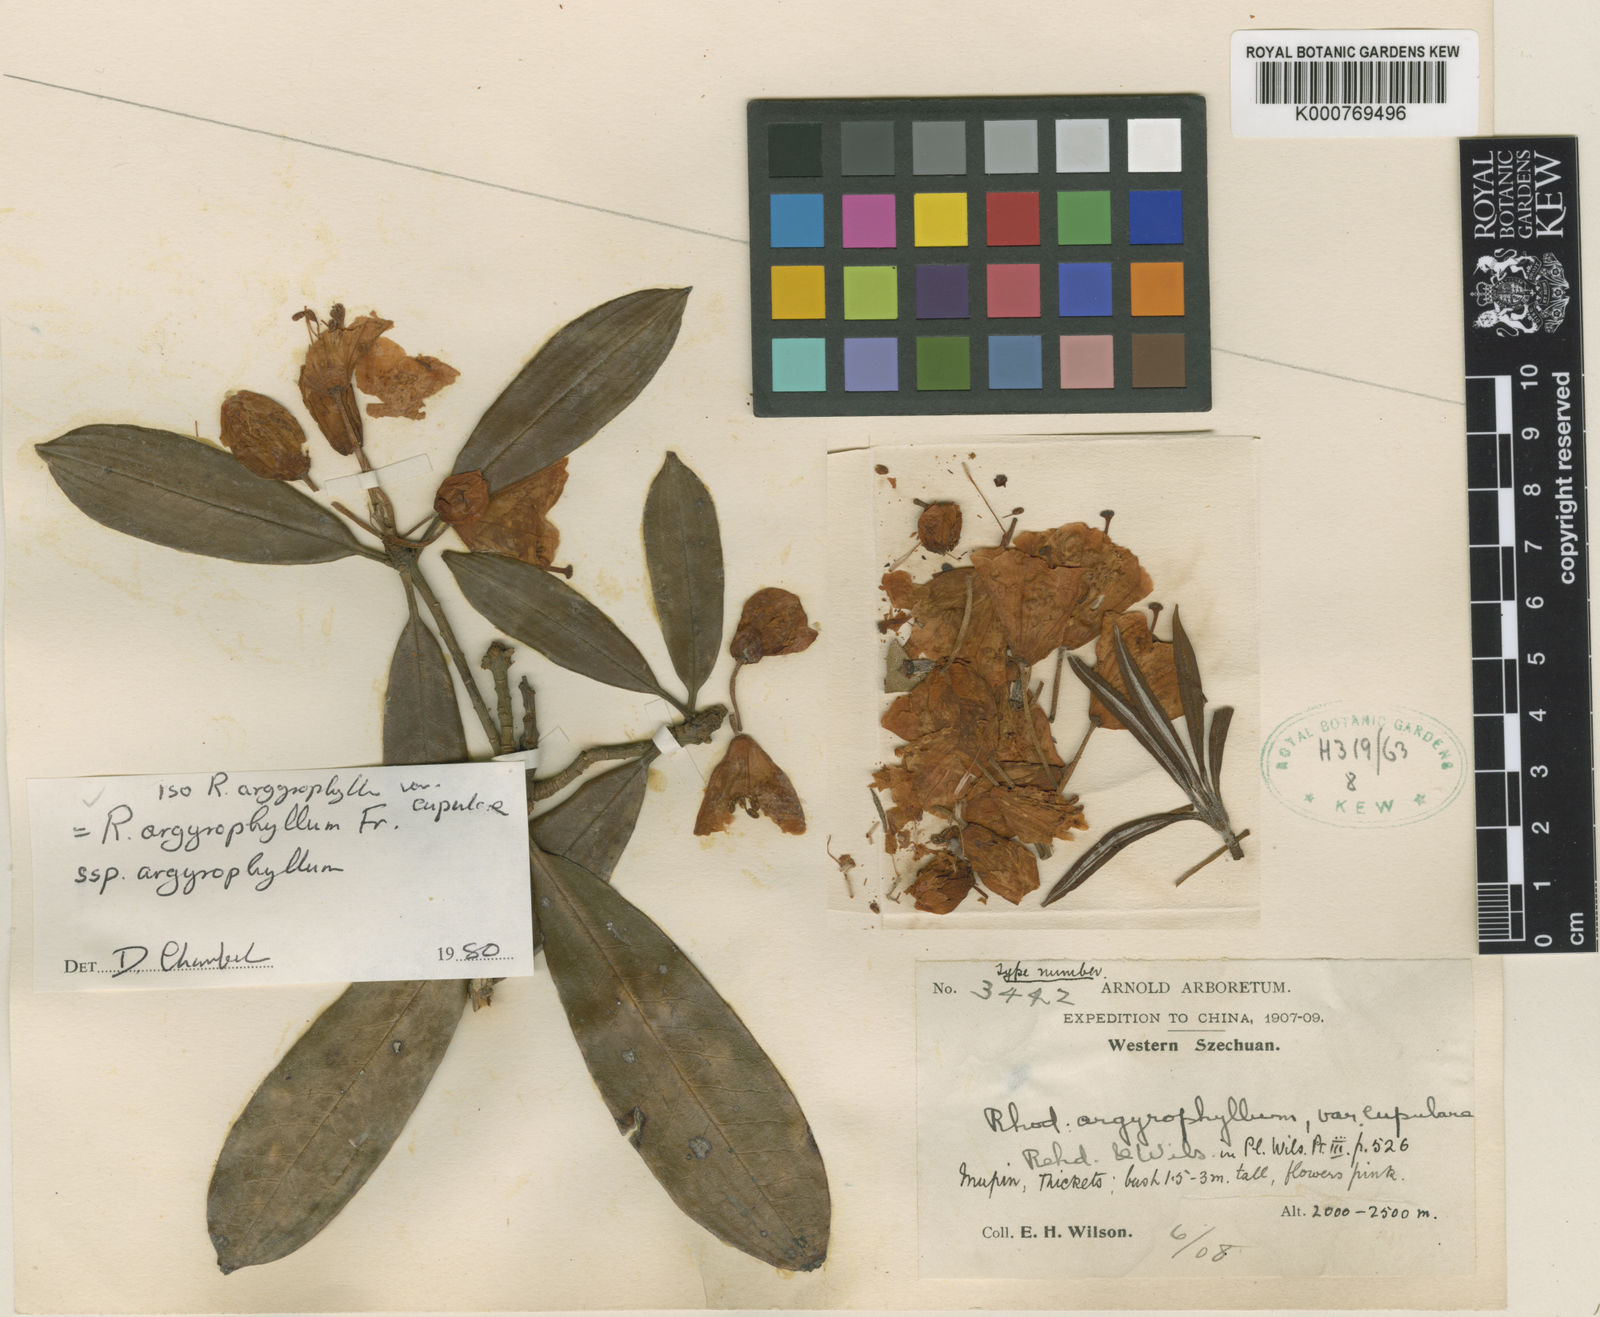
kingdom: Plantae
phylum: Tracheophyta
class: Magnoliopsida
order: Ericales
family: Ericaceae
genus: Rhododendron
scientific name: Rhododendron argyrophyllum
